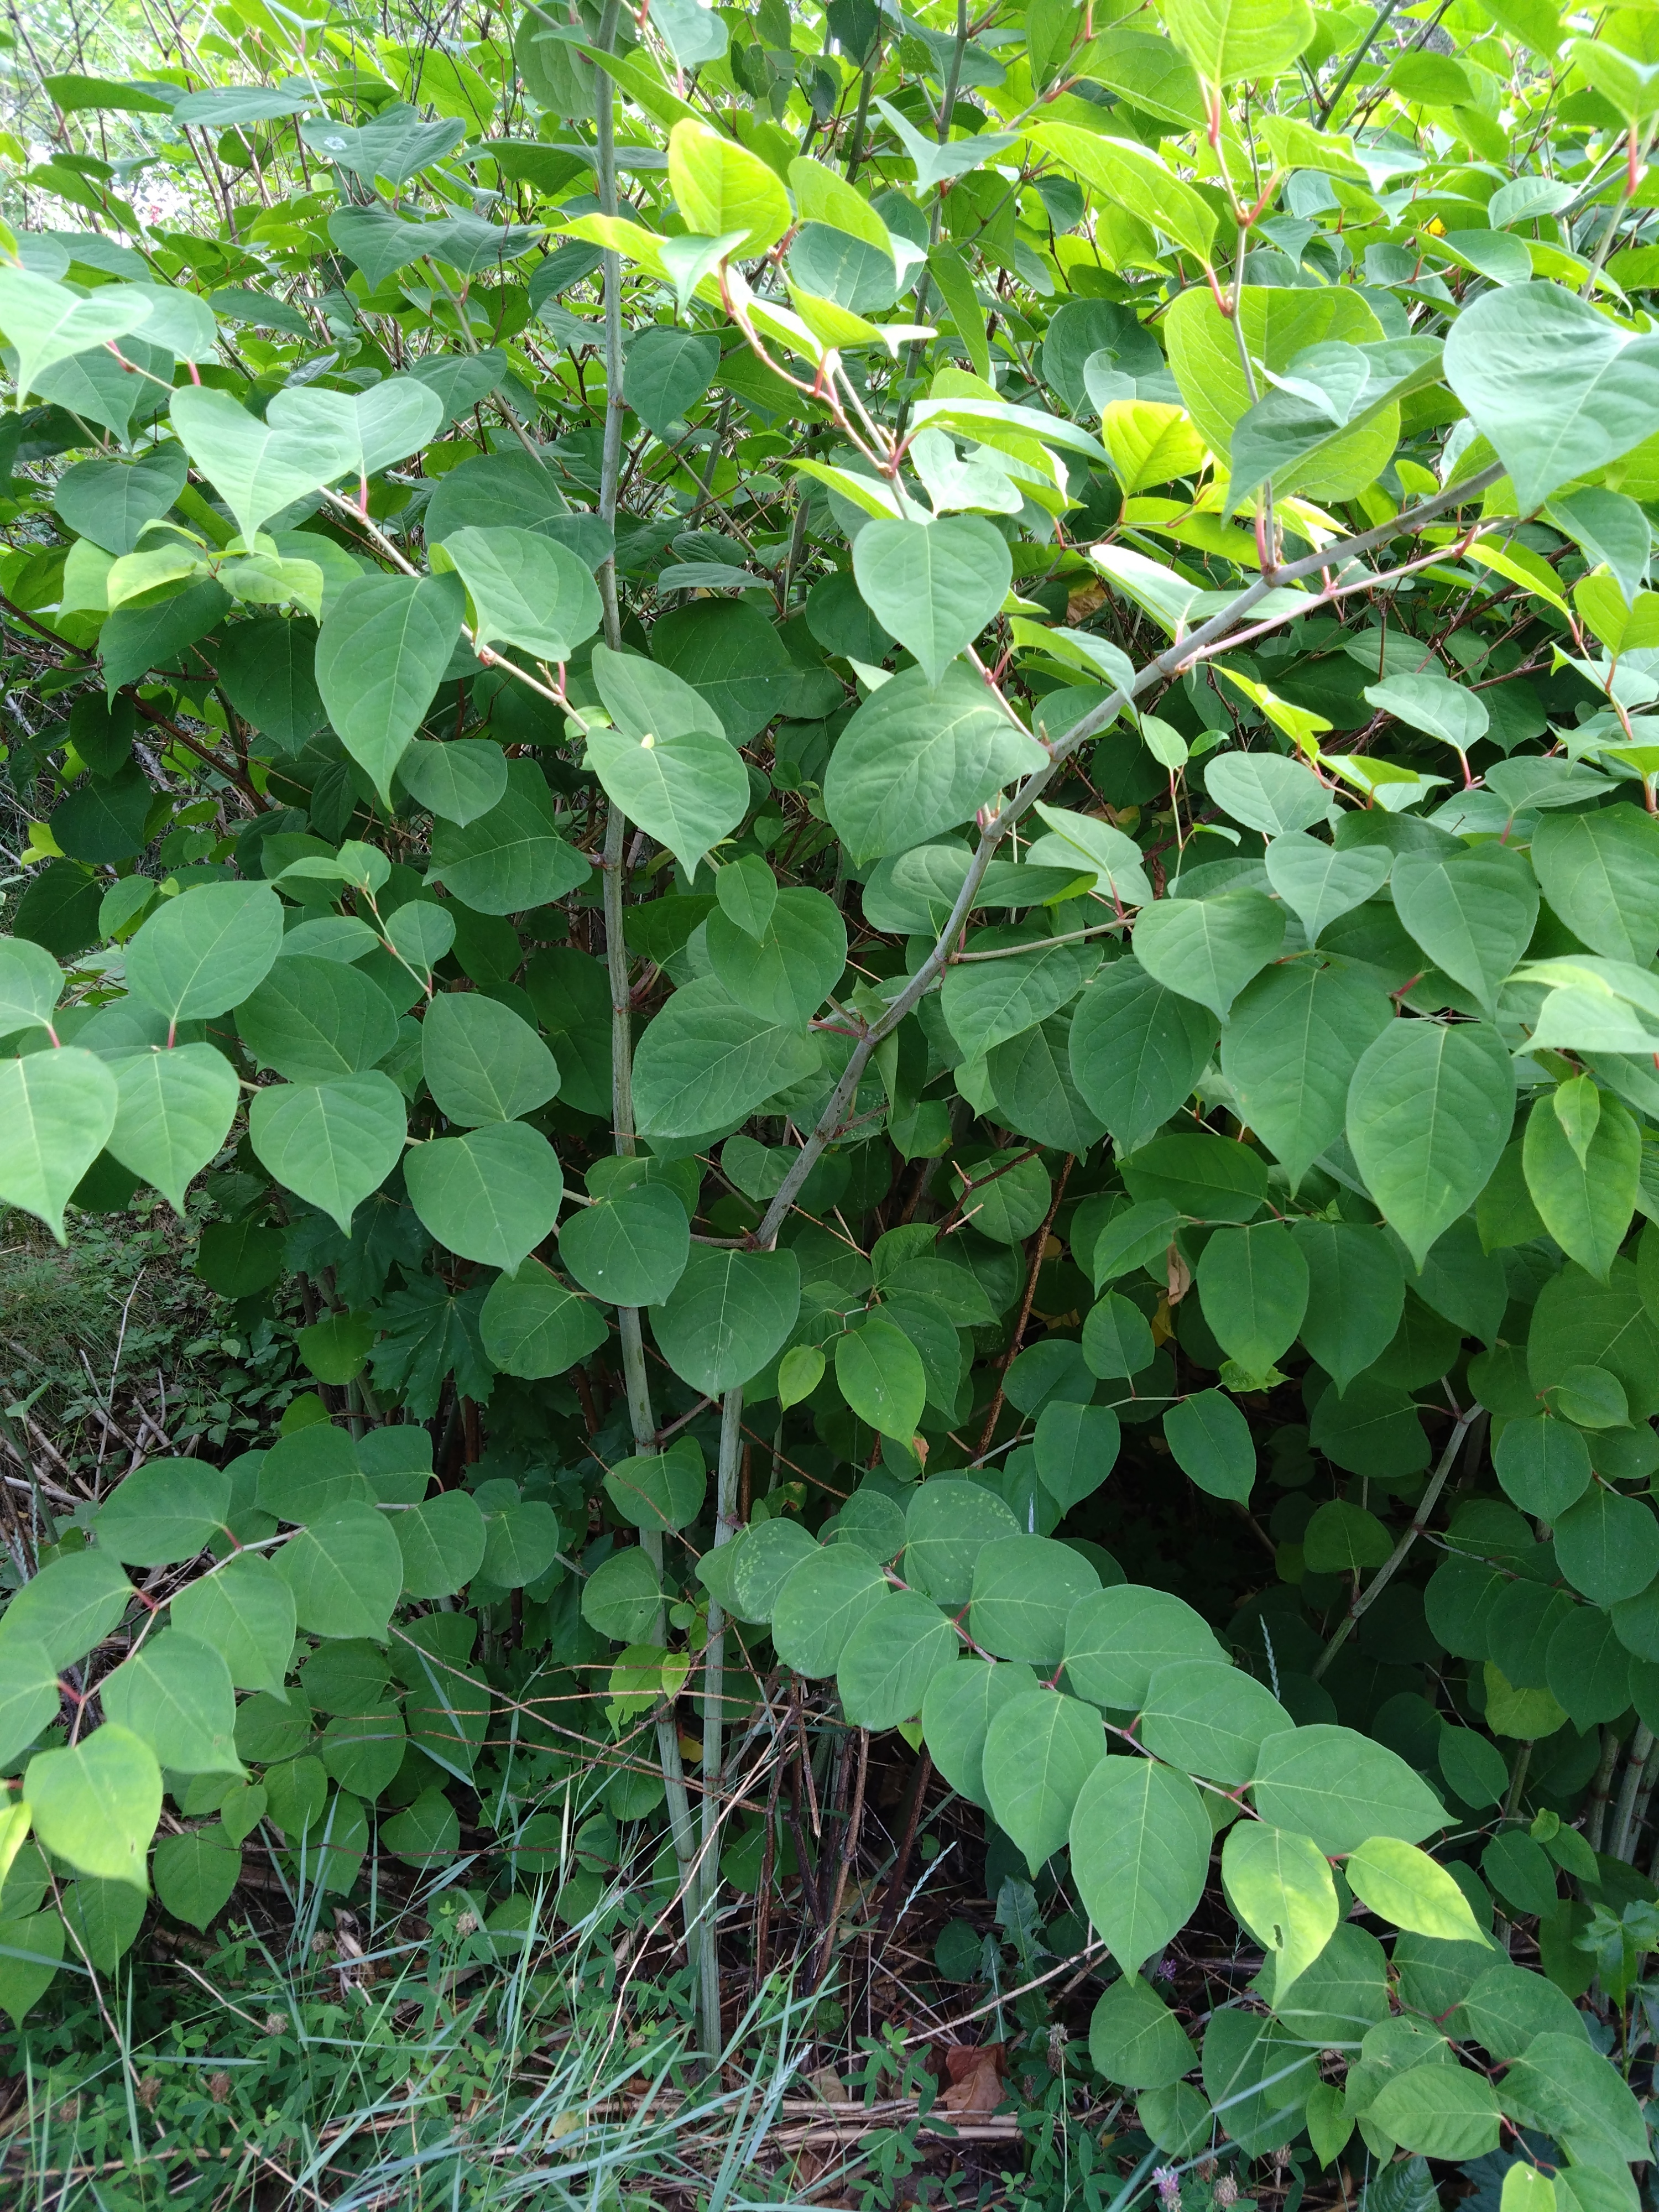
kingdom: Plantae
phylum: Tracheophyta
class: Magnoliopsida
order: Caryophyllales
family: Polygonaceae
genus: Reynoutria
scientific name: Reynoutria japonica
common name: Japanese knotweed
